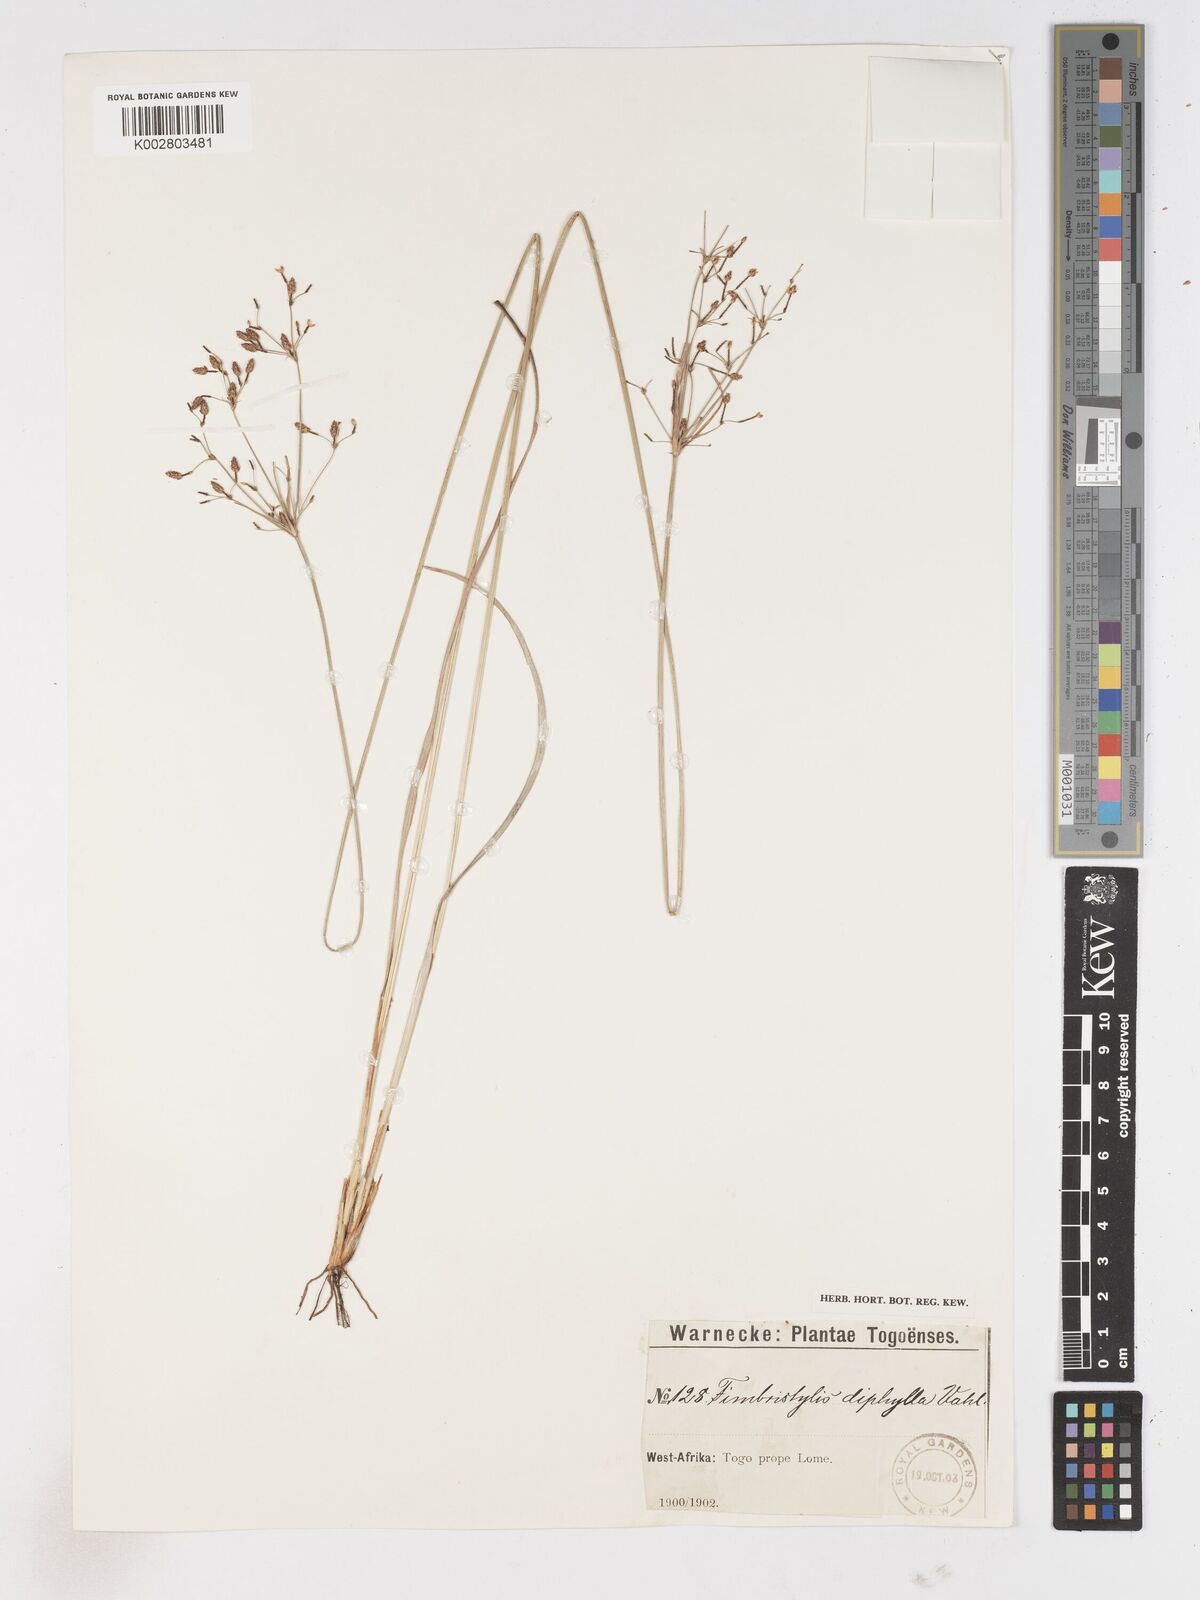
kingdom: Plantae
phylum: Tracheophyta
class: Liliopsida
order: Poales
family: Cyperaceae
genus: Fimbristylis
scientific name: Fimbristylis dichotoma
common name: Forked fimbry
